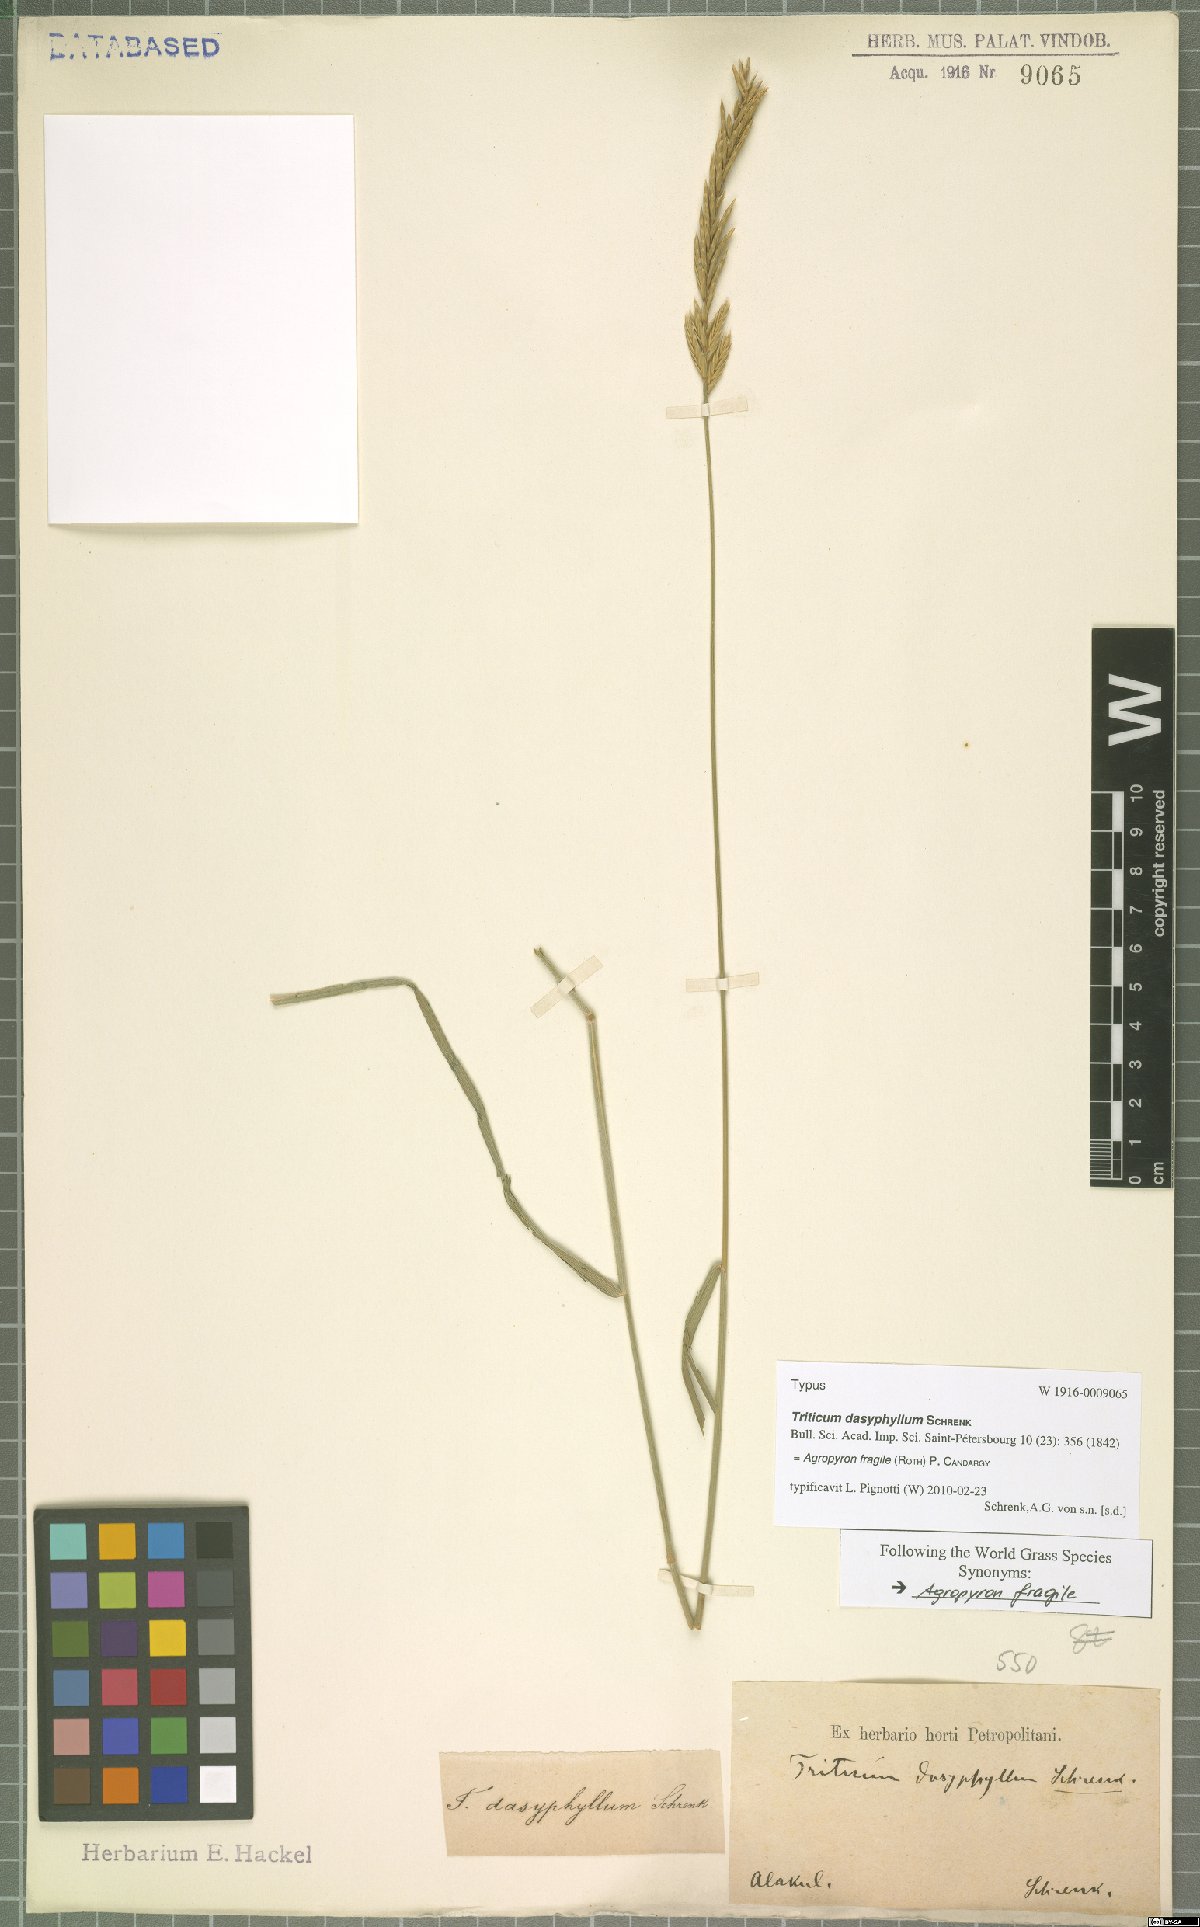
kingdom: Plantae
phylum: Tracheophyta
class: Liliopsida
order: Poales
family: Poaceae
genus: Agropyron
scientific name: Agropyron fragile
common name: Siberian wheatgrass
